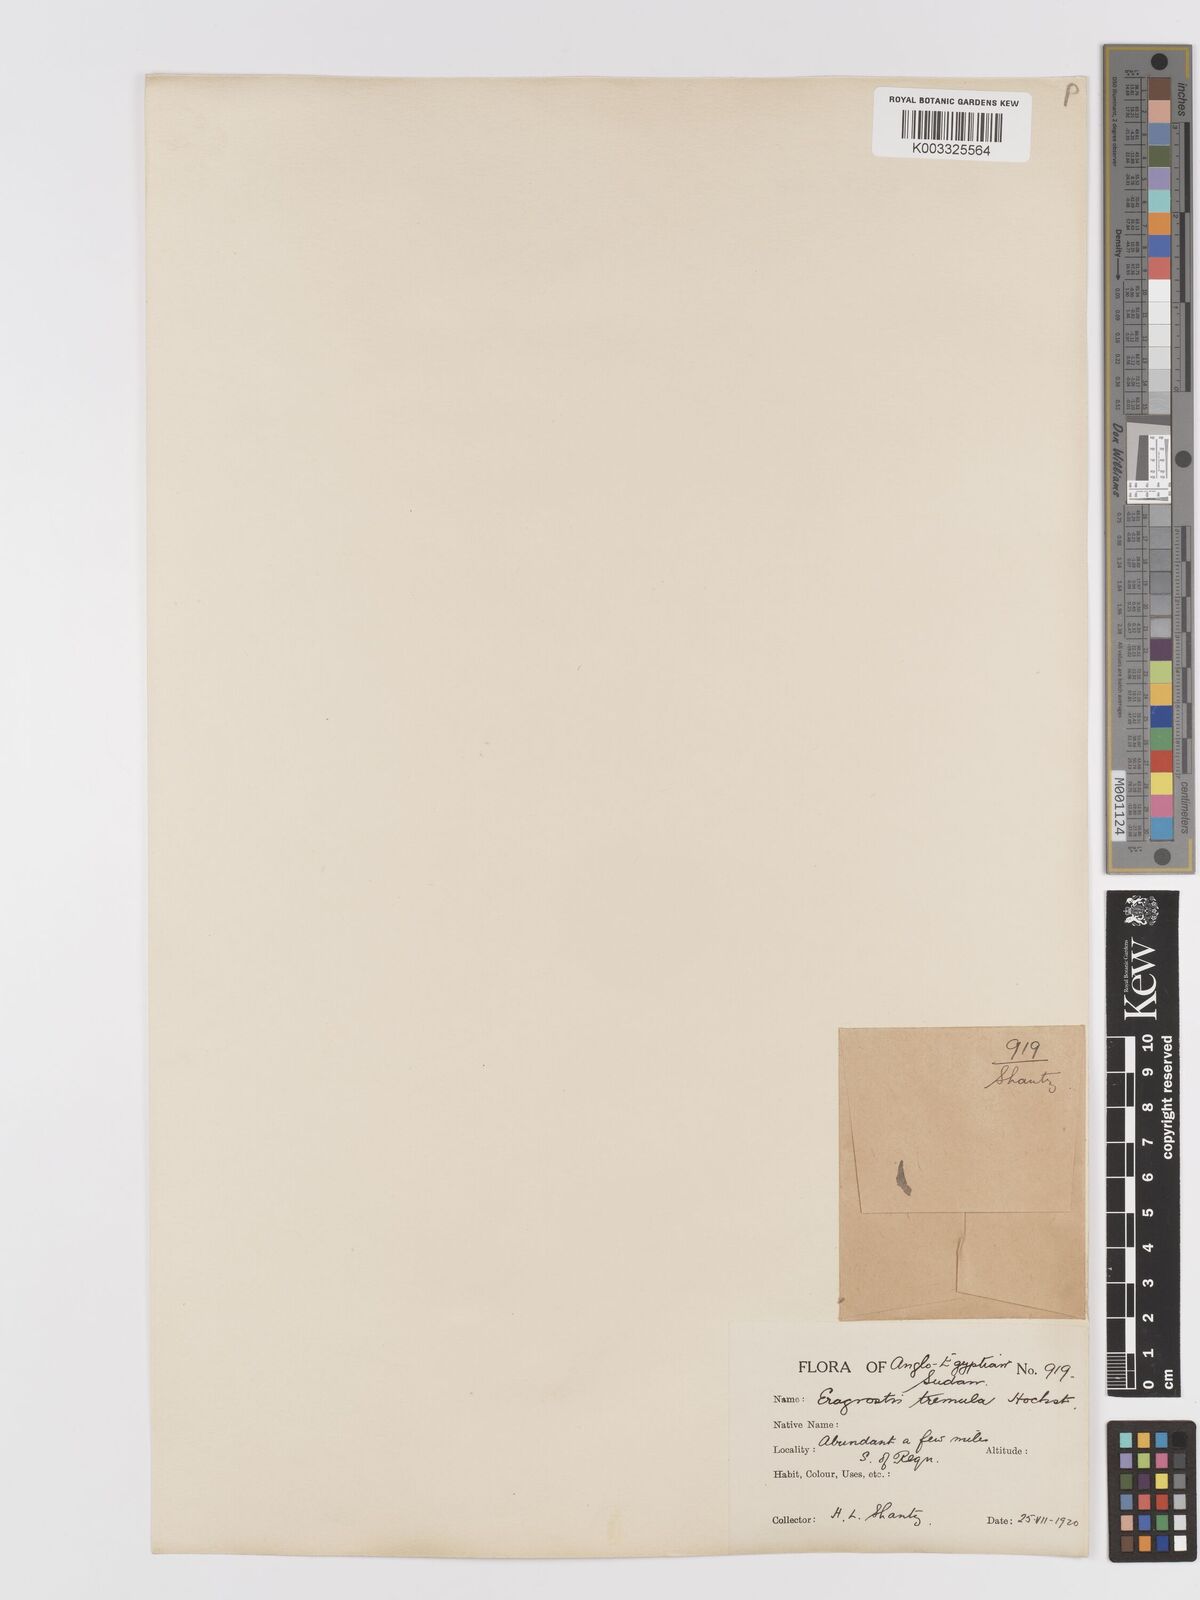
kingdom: Plantae
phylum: Tracheophyta
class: Liliopsida
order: Poales
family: Poaceae
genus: Eragrostis
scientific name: Eragrostis tremula
